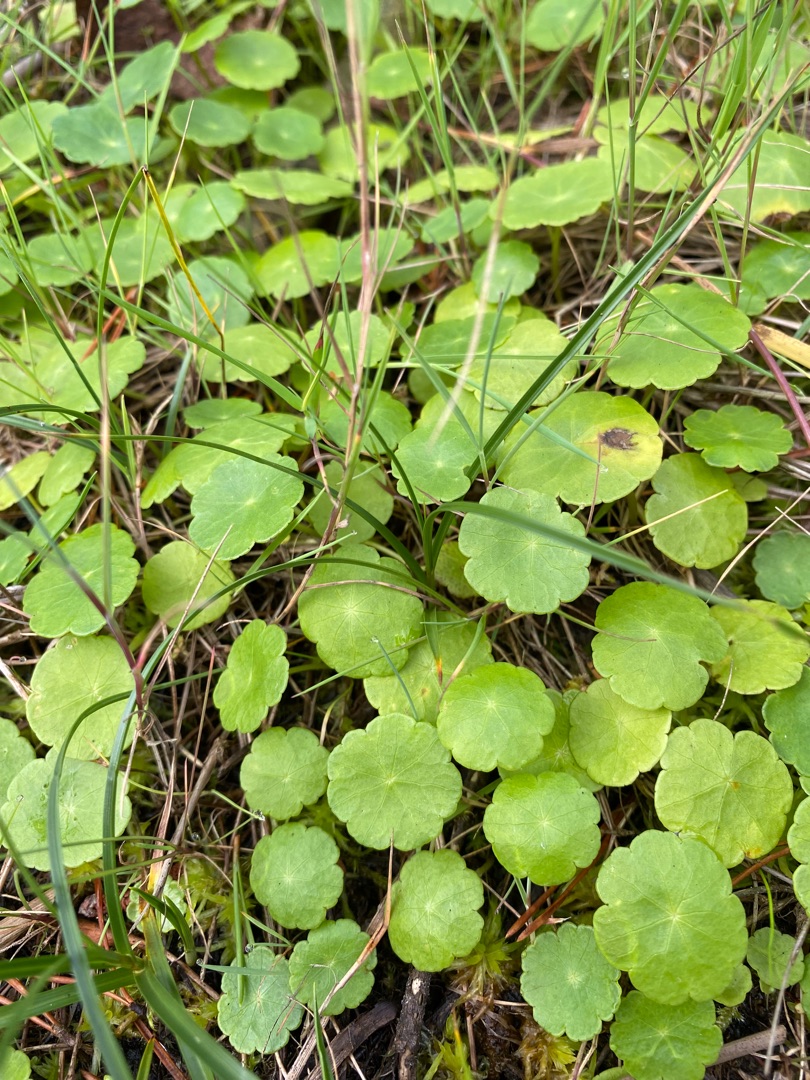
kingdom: Plantae
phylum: Tracheophyta
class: Magnoliopsida
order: Apiales
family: Araliaceae
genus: Hydrocotyle
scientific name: Hydrocotyle vulgaris
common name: Vandnavle
